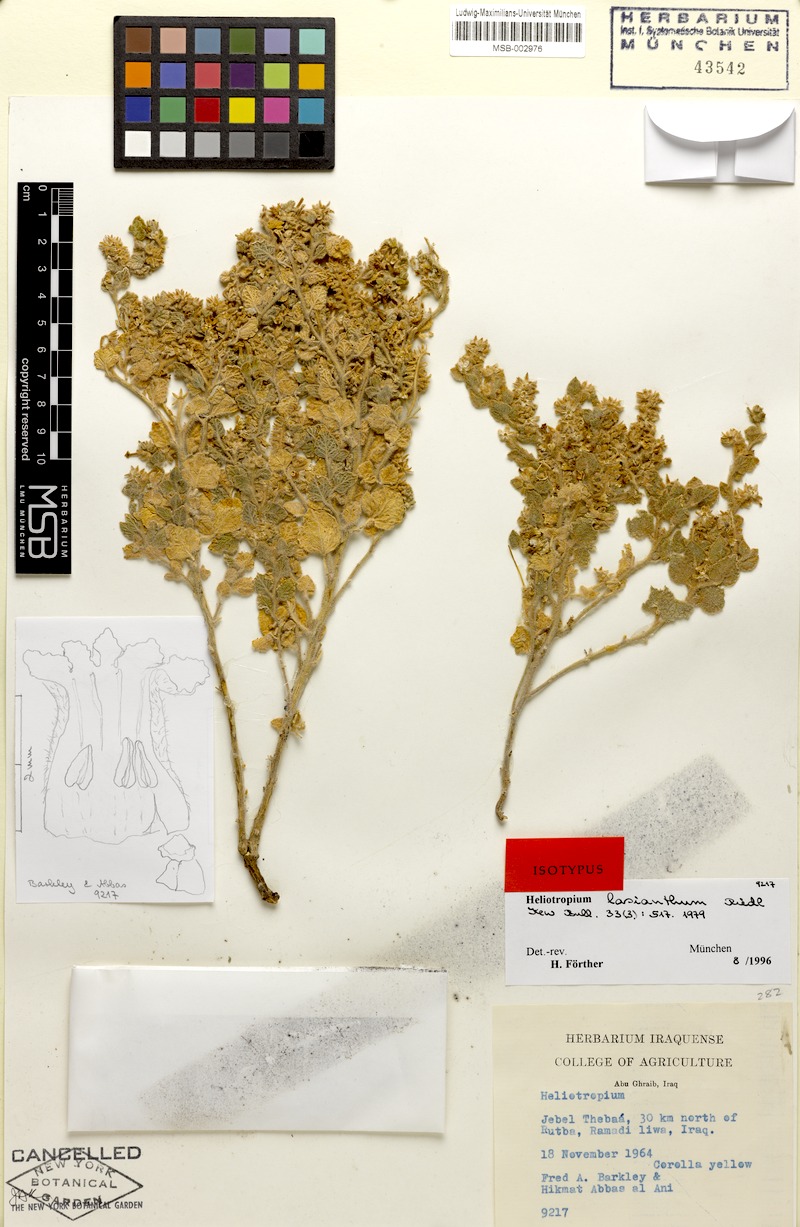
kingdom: Plantae
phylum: Tracheophyta
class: Magnoliopsida
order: Boraginales
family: Heliotropiaceae
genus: Heliotropium
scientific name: Heliotropium lasianthum
